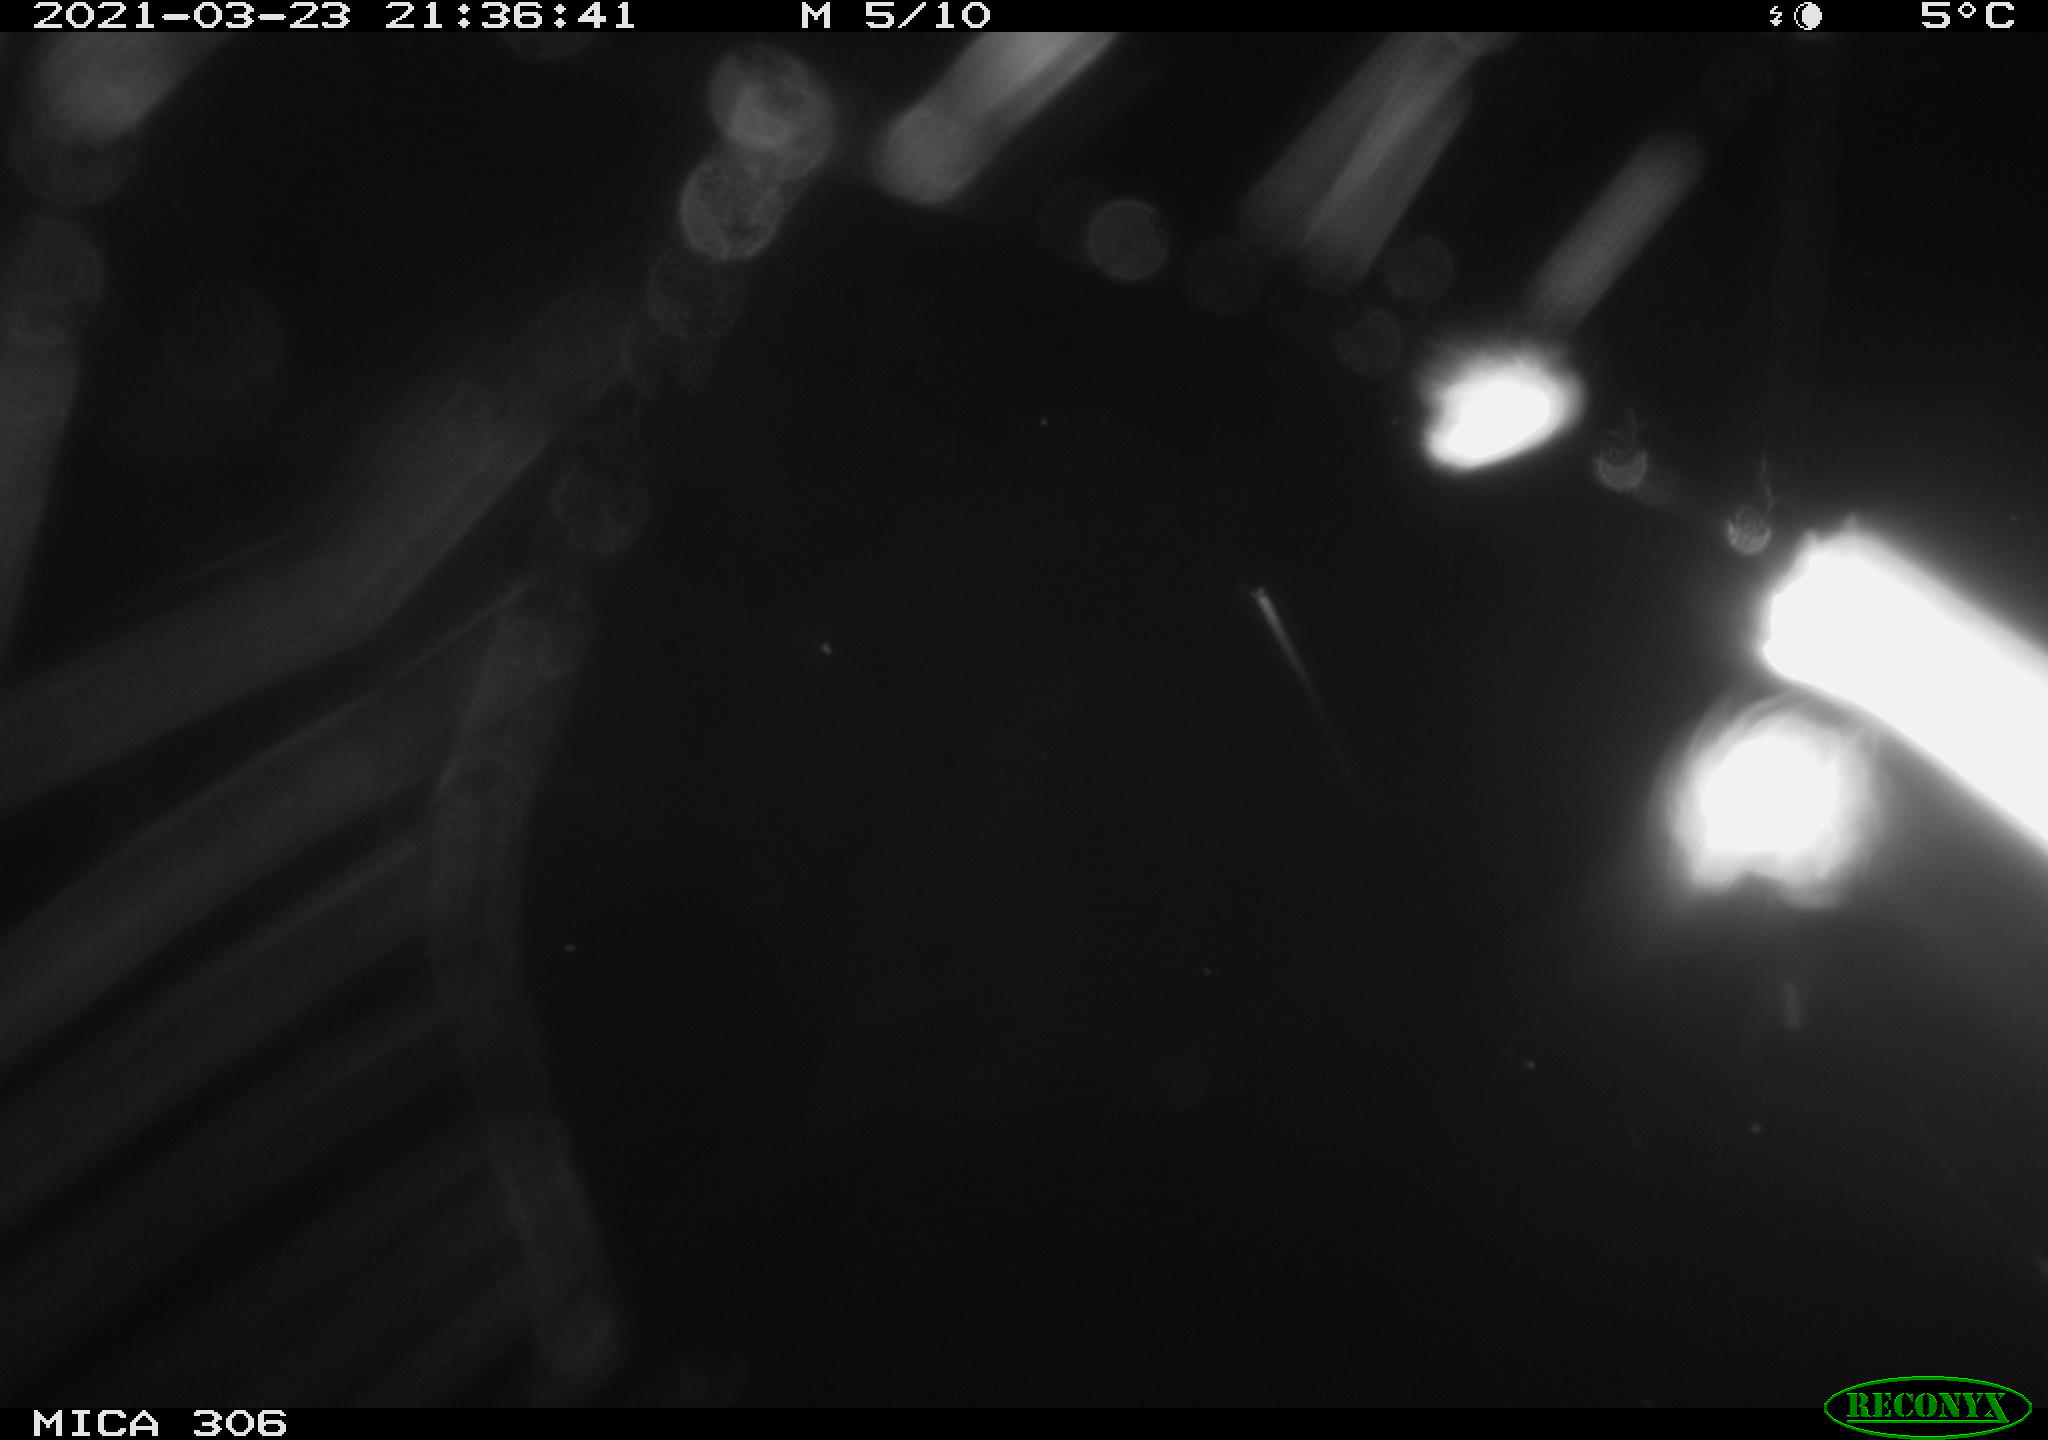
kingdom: Animalia
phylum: Chordata
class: Mammalia
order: Rodentia
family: Muridae
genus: Rattus
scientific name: Rattus norvegicus
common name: Brown rat
